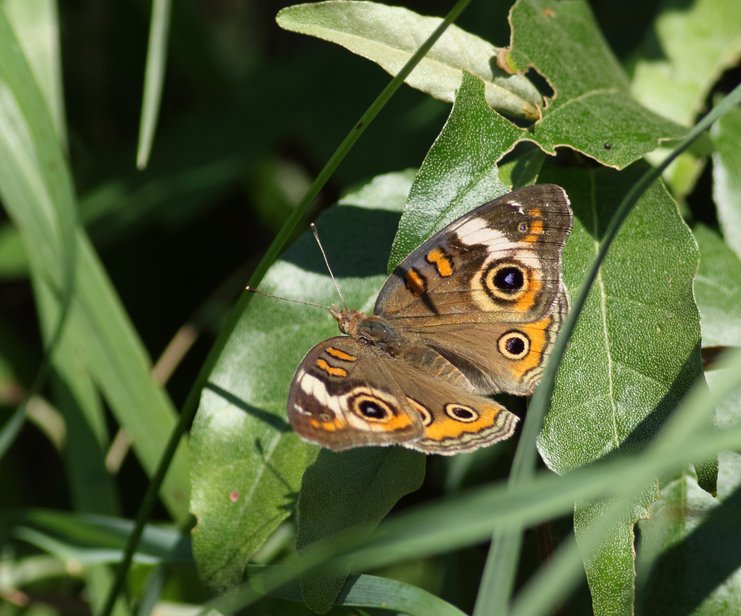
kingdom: Animalia
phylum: Arthropoda
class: Insecta
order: Lepidoptera
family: Nymphalidae
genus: Junonia
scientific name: Junonia coenia
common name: Common Buckeye
